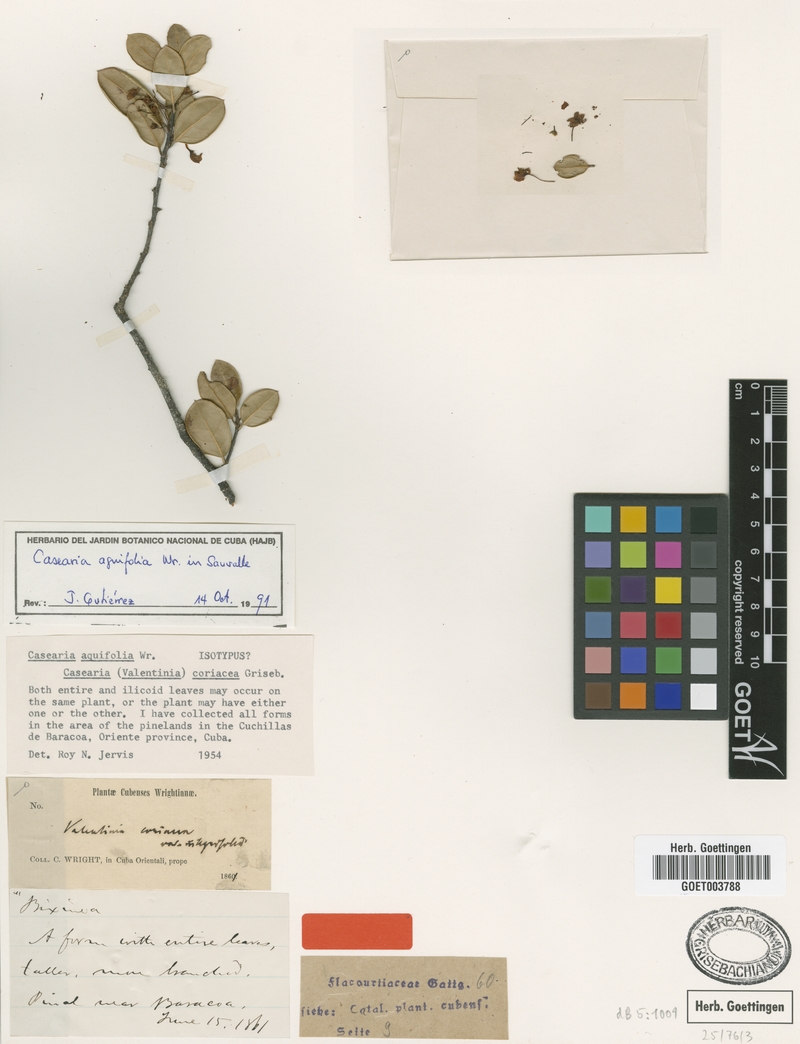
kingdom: Plantae
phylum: Tracheophyta
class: Magnoliopsida
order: Malpighiales
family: Salicaceae
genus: Casearia
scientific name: Casearia aquifolia
